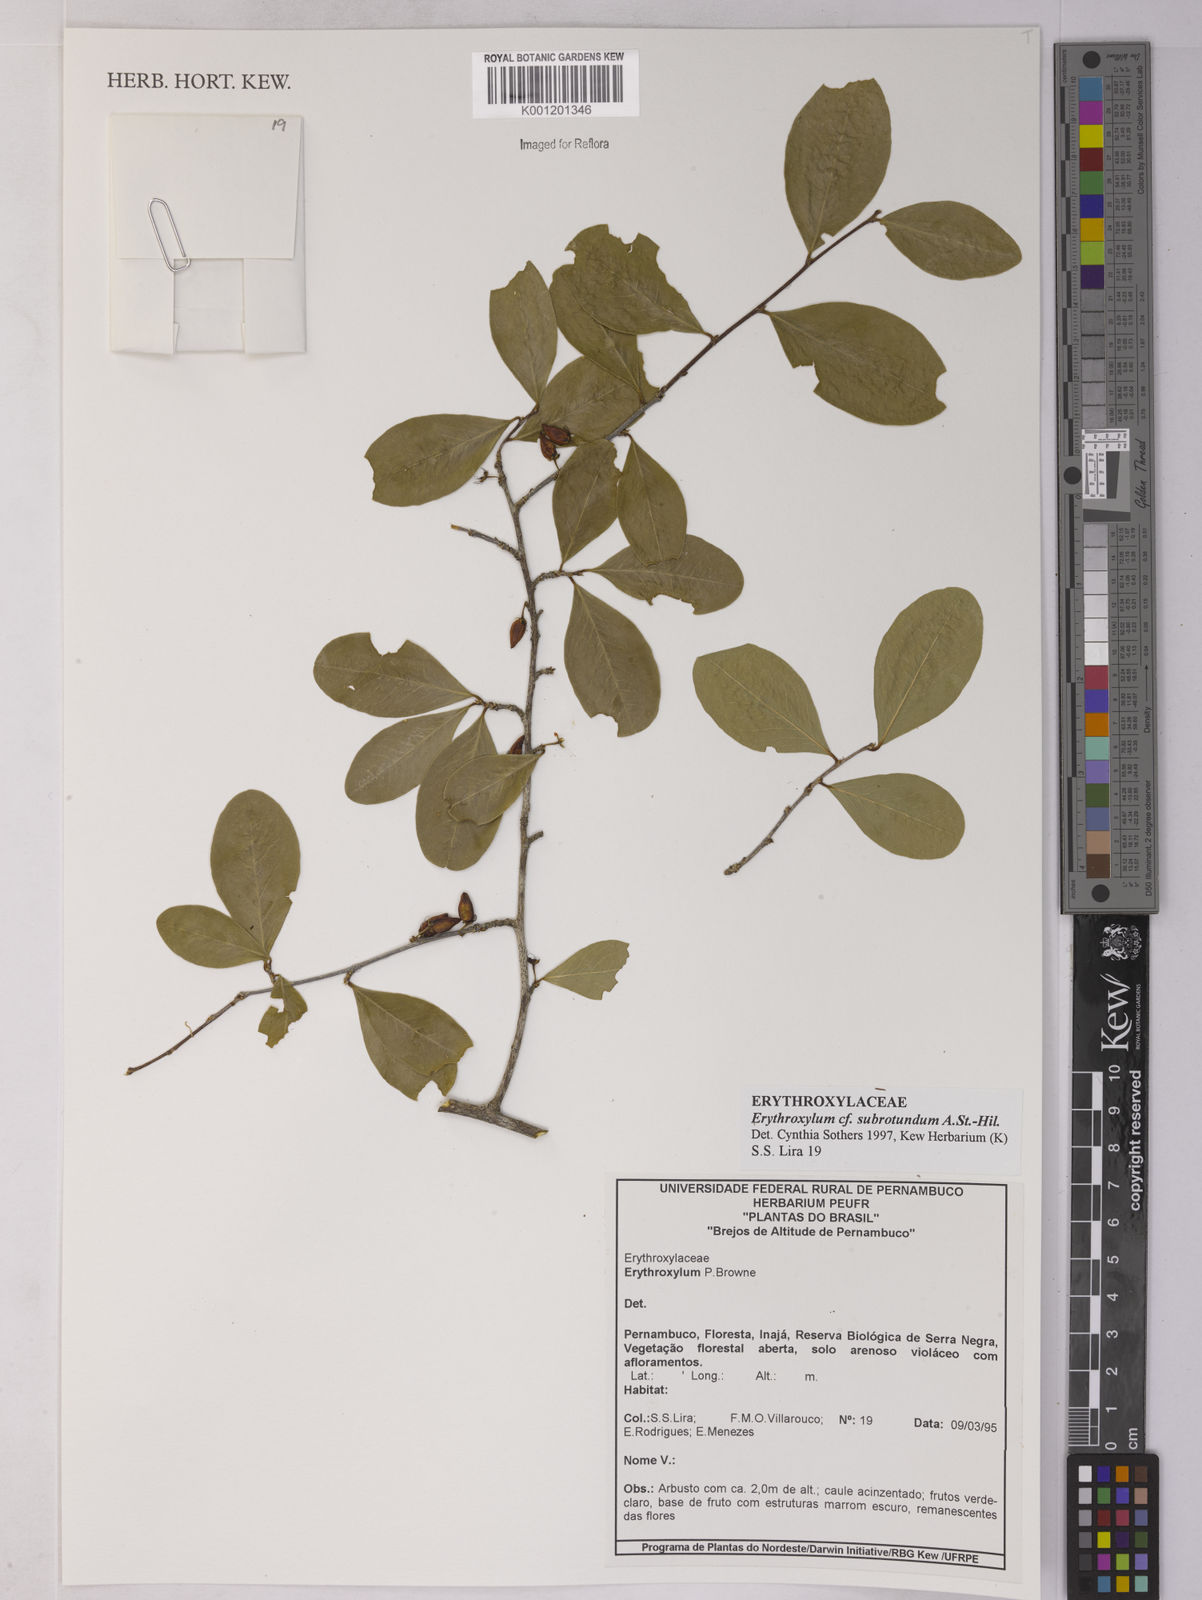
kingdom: Plantae
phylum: Tracheophyta
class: Magnoliopsida
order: Malpighiales
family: Erythroxylaceae
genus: Erythroxylum
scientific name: Erythroxylum subrotundum
